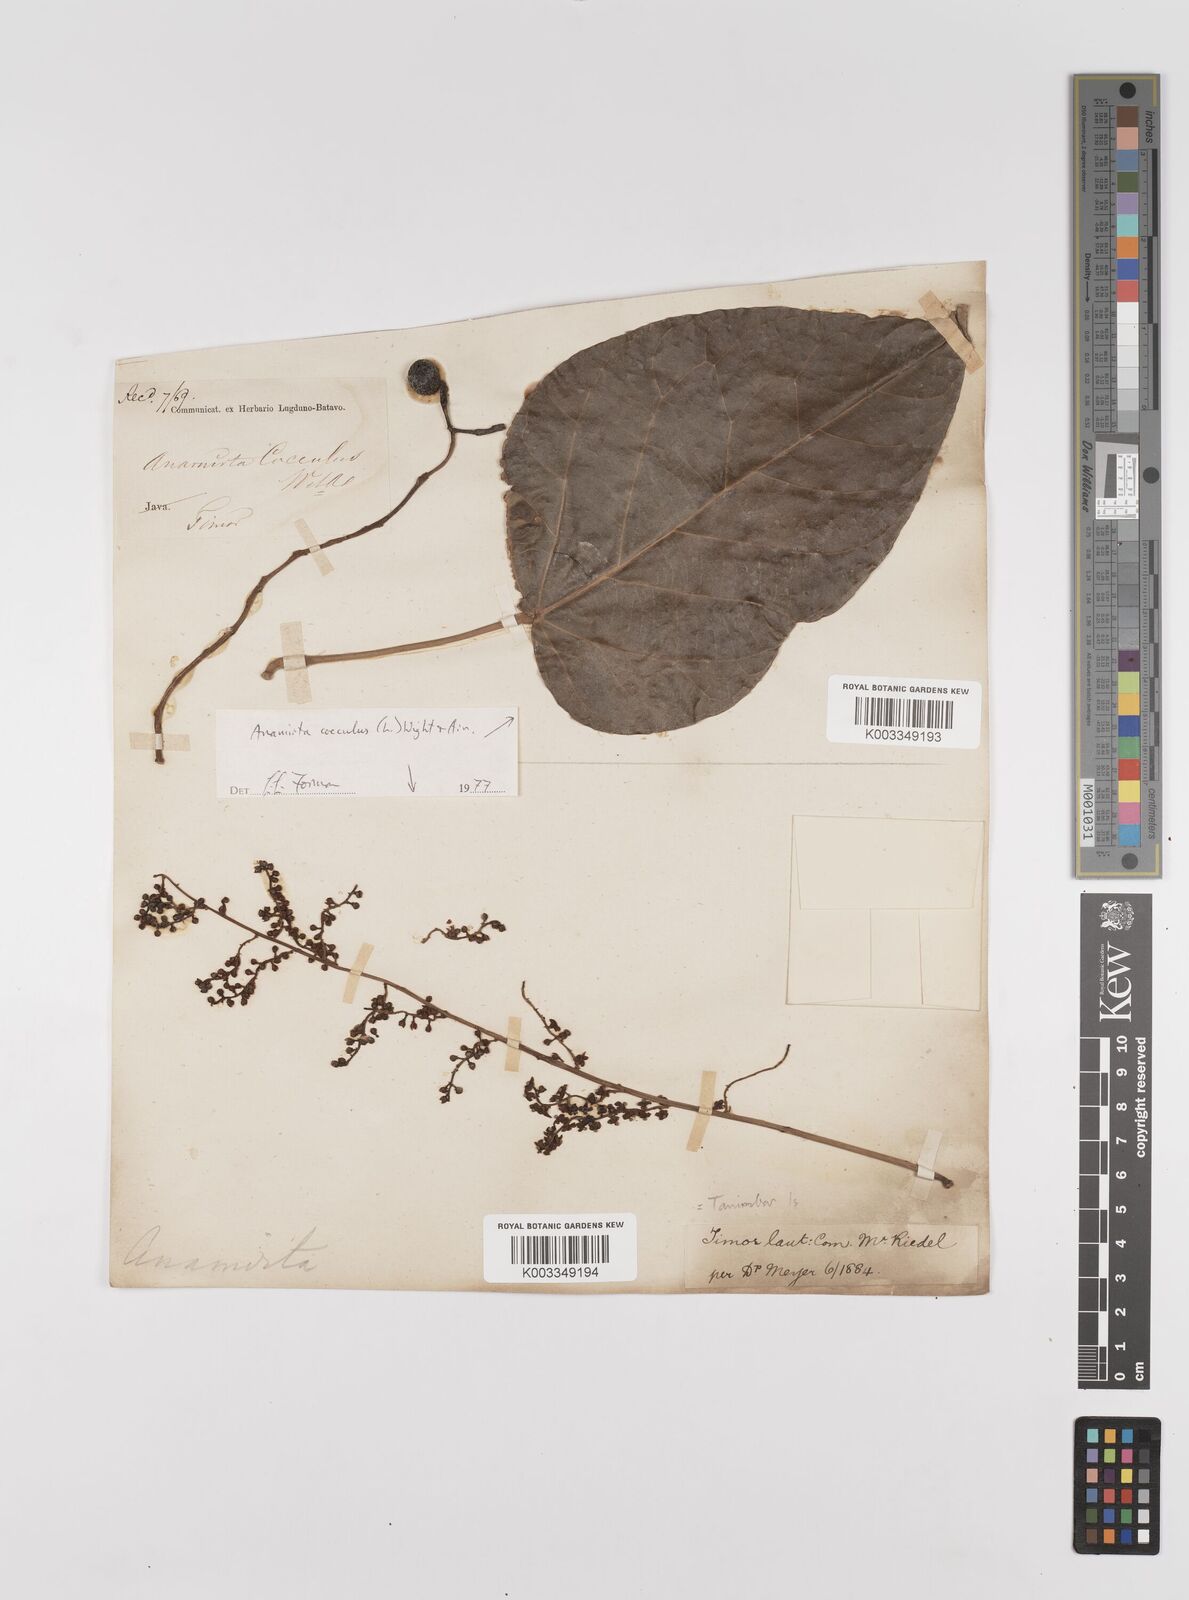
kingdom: Plantae
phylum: Tracheophyta
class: Magnoliopsida
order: Ranunculales
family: Menispermaceae
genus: Anamirta
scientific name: Anamirta cocculus
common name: Levantnut
